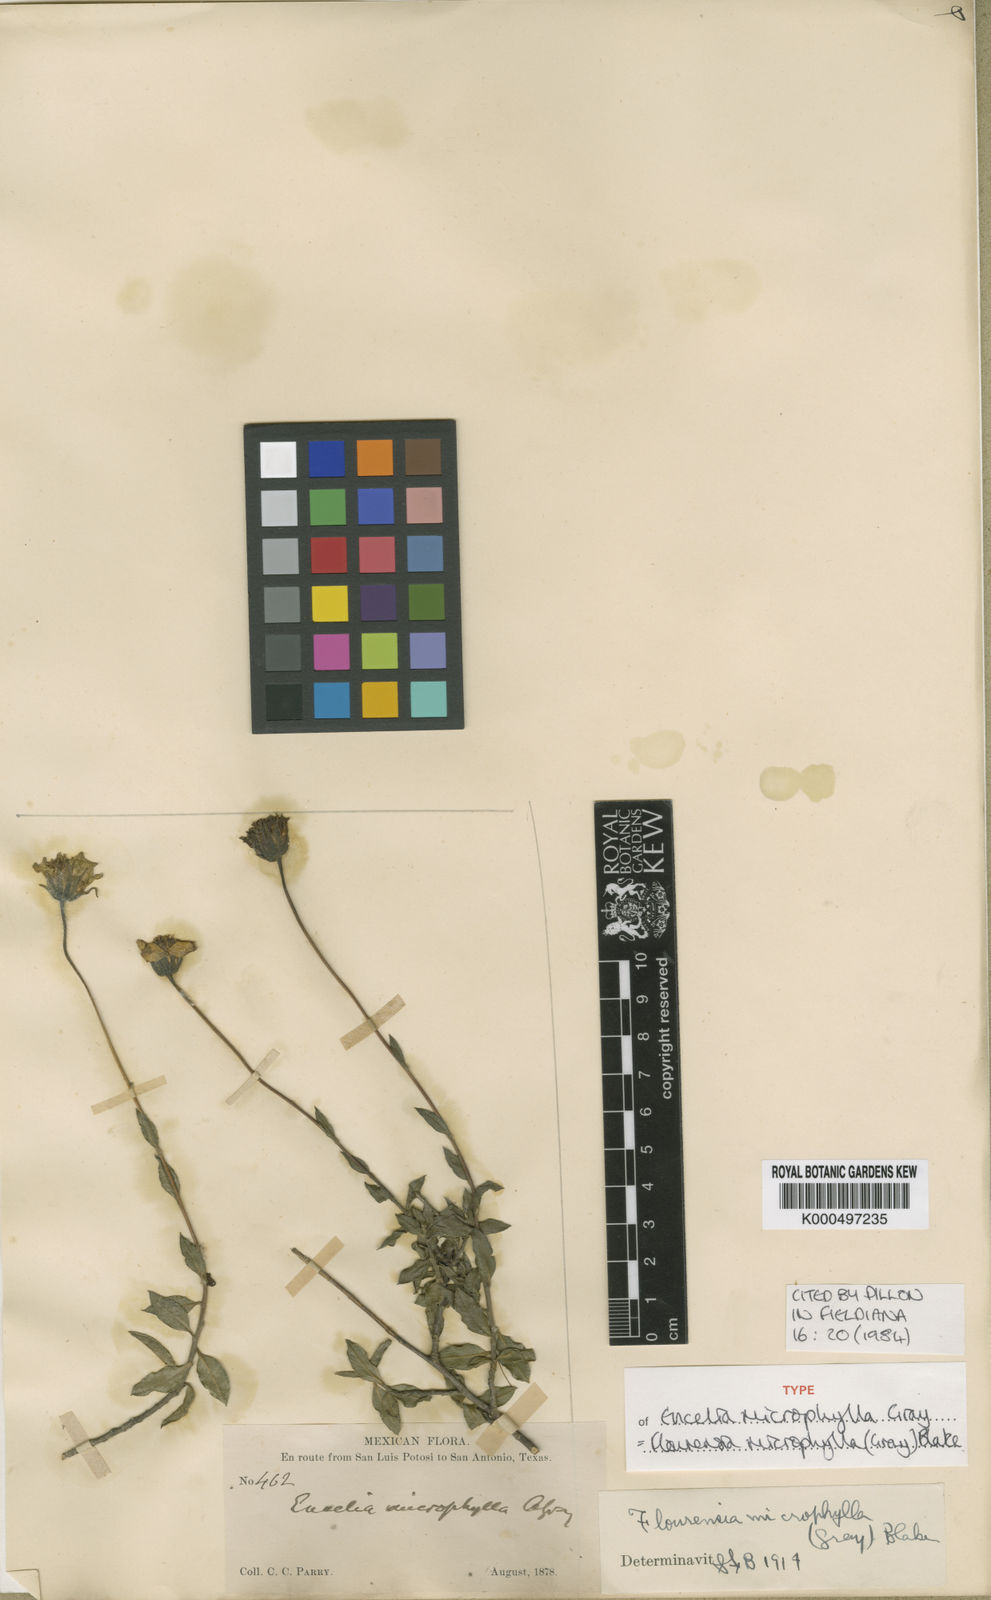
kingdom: Plantae
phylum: Tracheophyta
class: Magnoliopsida
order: Asterales
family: Asteraceae
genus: Flourensia
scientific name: Flourensia microphylla
